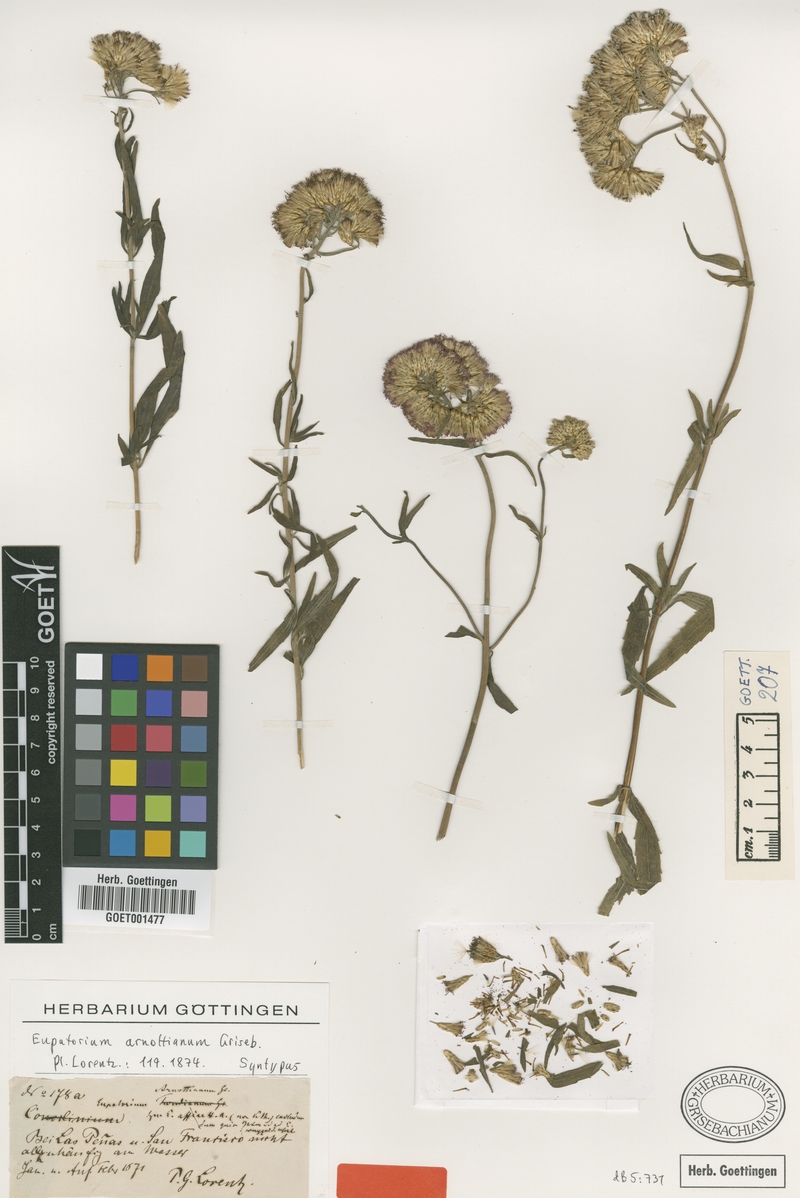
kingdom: Plantae
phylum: Tracheophyta
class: Magnoliopsida
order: Asterales
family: Asteraceae
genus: Chromolaena
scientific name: Chromolaena arnottiana
